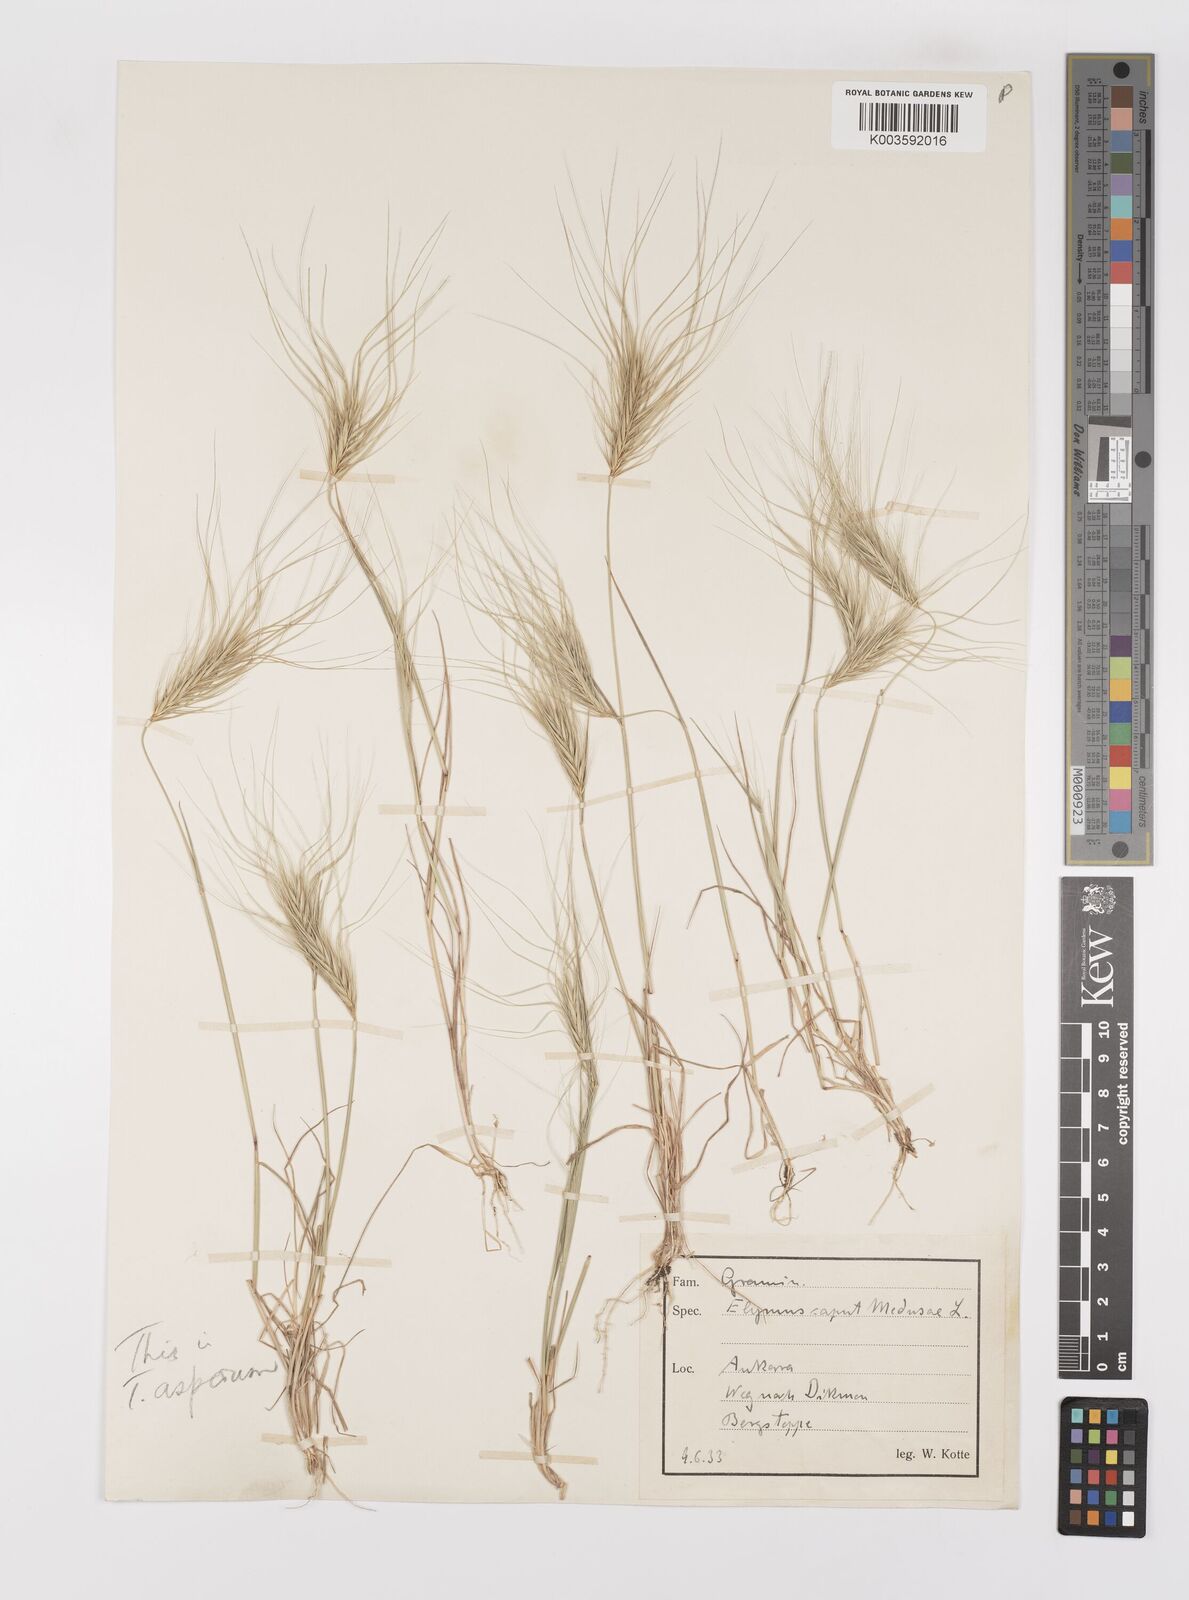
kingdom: Plantae
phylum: Tracheophyta
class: Liliopsida
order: Poales
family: Poaceae
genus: Taeniatherum
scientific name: Taeniatherum caput-medusae
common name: Medusahead
